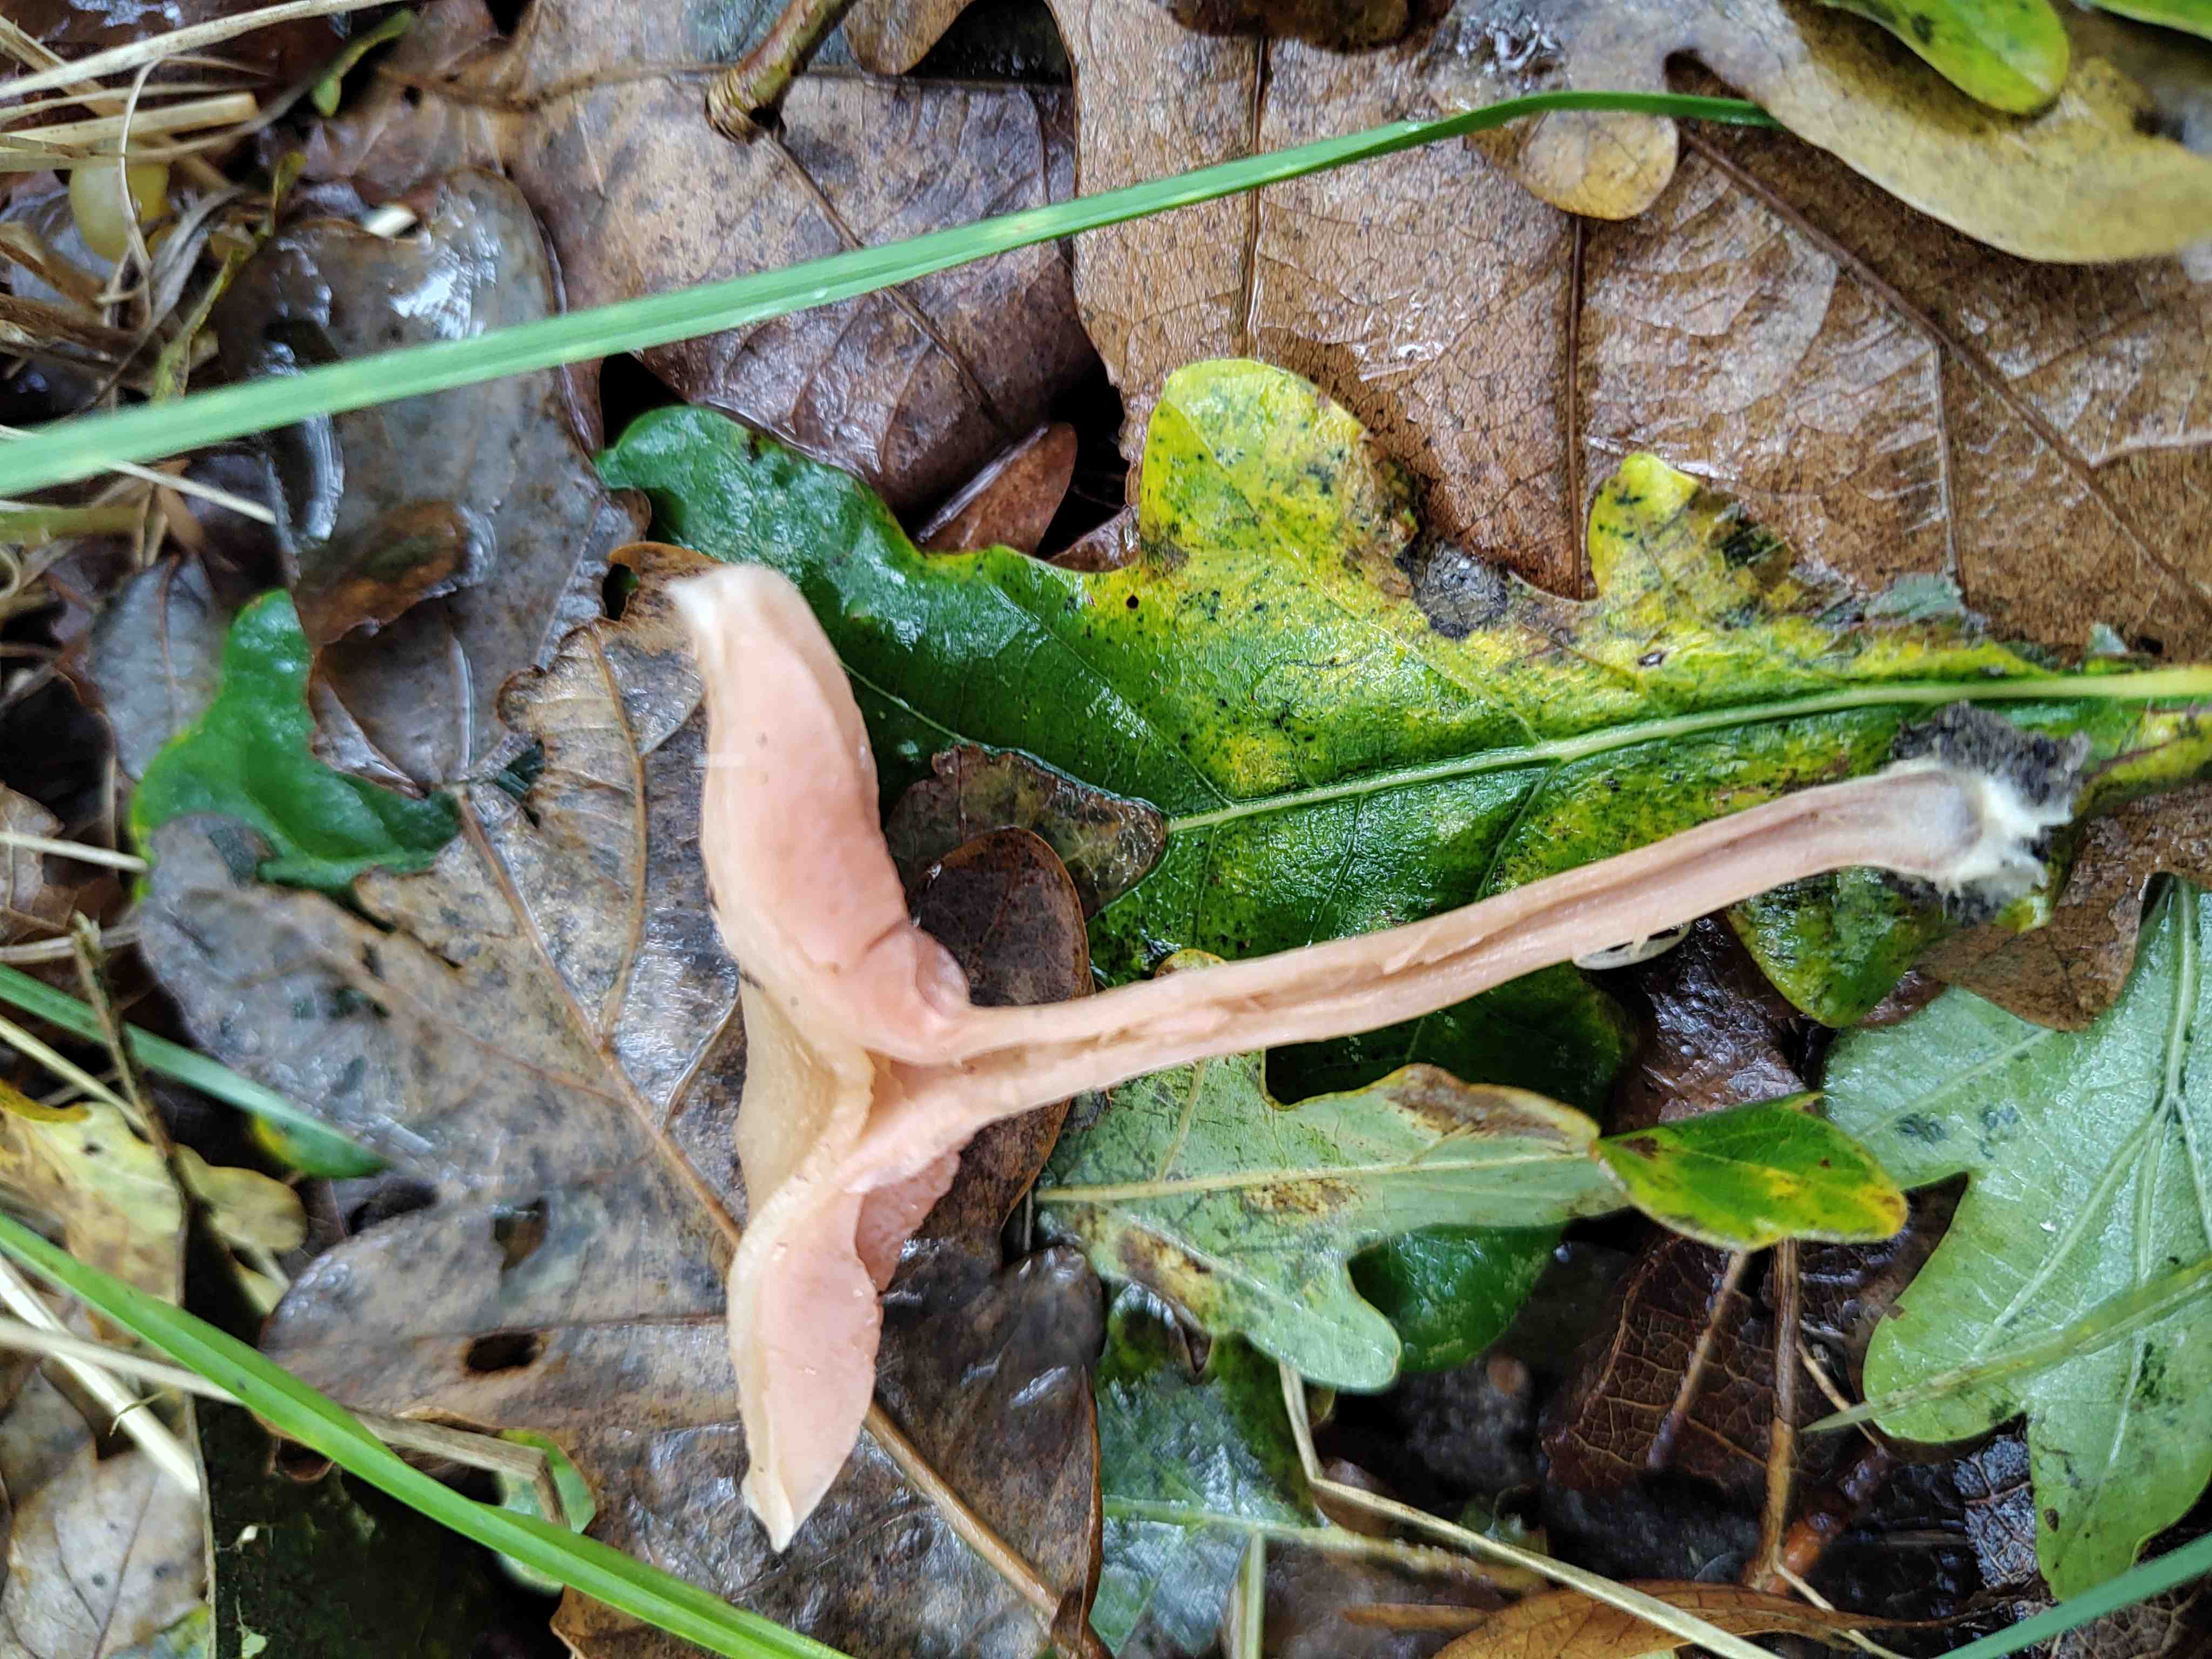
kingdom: Fungi
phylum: Basidiomycota
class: Agaricomycetes
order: Agaricales
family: Hydnangiaceae
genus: Laccaria
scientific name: Laccaria laccata
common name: rød ametysthat
